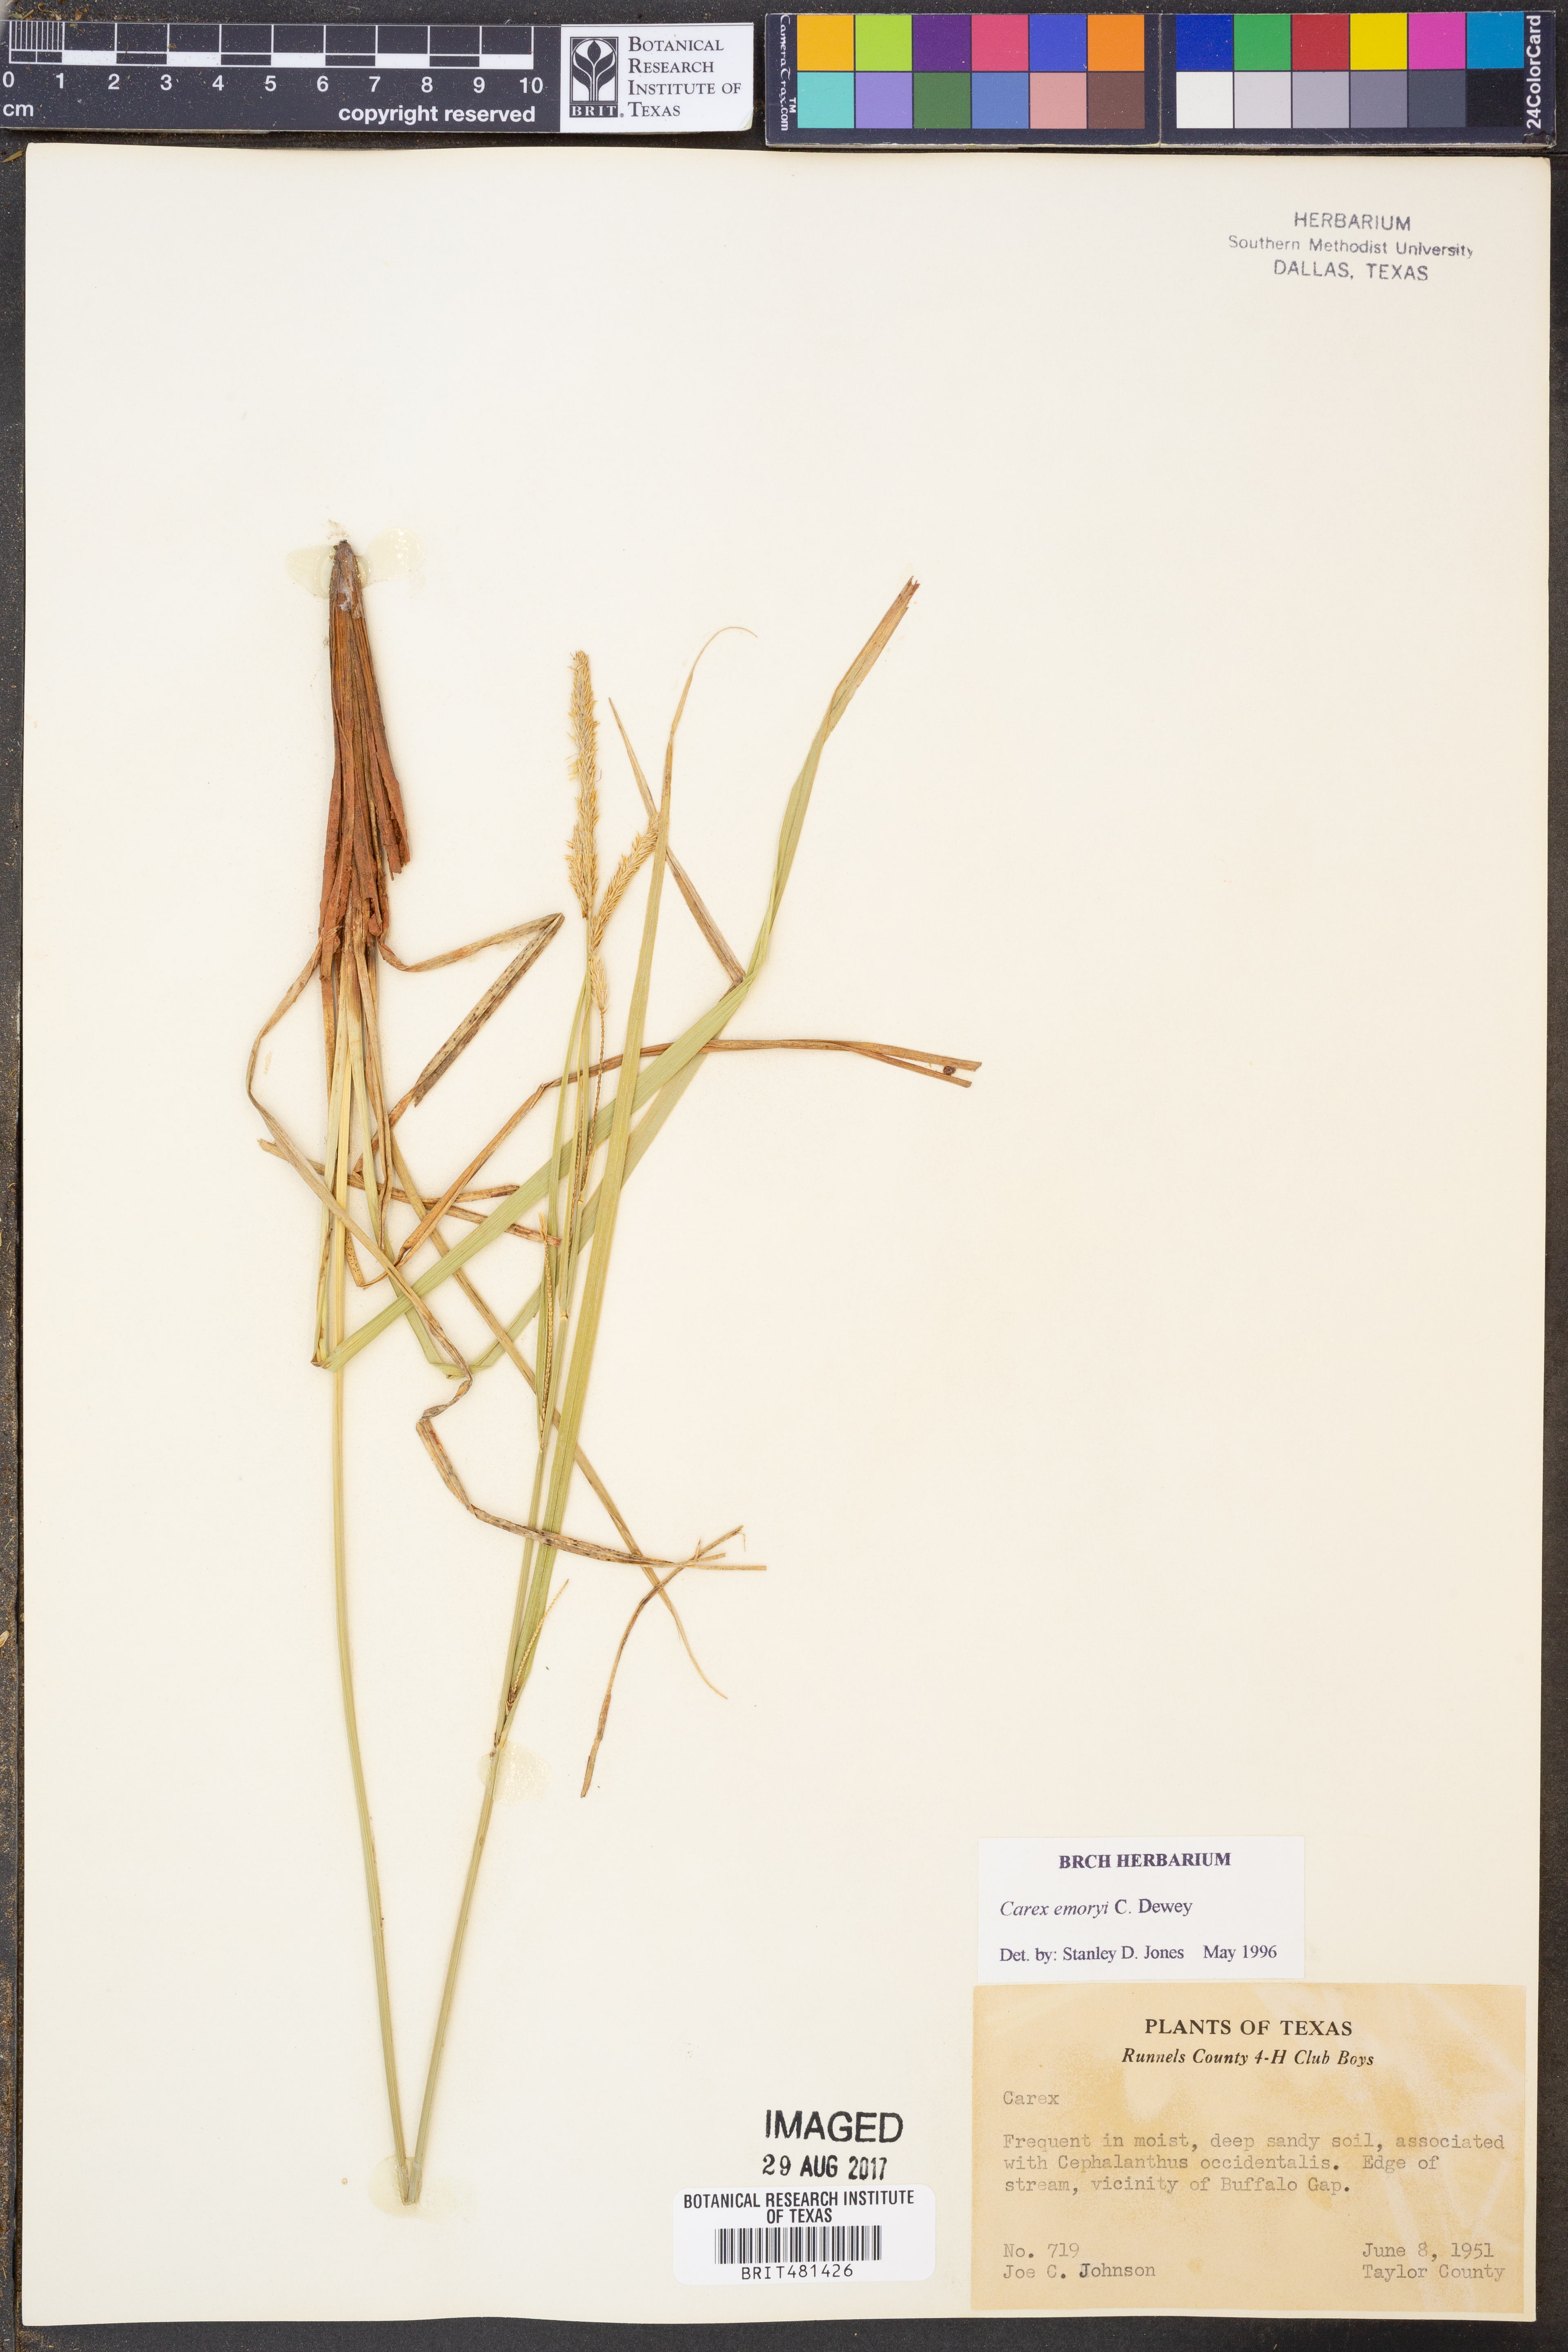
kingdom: Plantae
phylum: Tracheophyta
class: Liliopsida
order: Poales
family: Cyperaceae
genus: Carex
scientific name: Carex emoryi
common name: Emory's sedge
